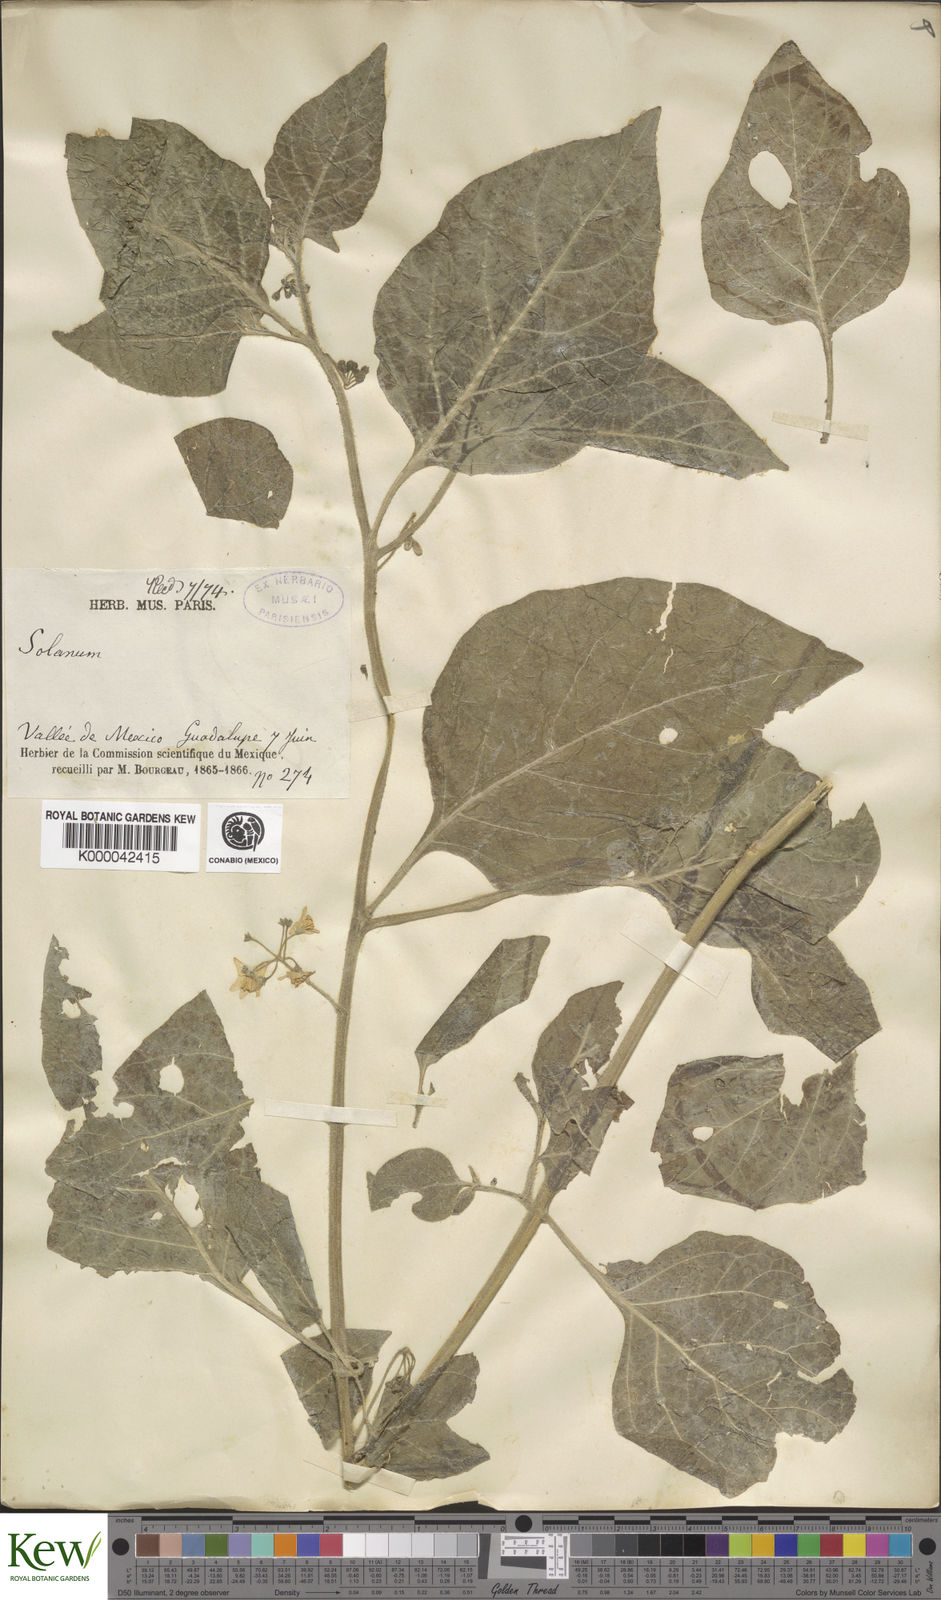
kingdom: Plantae
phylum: Tracheophyta
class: Magnoliopsida
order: Solanales
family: Solanaceae
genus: Solanum
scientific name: Solanum
